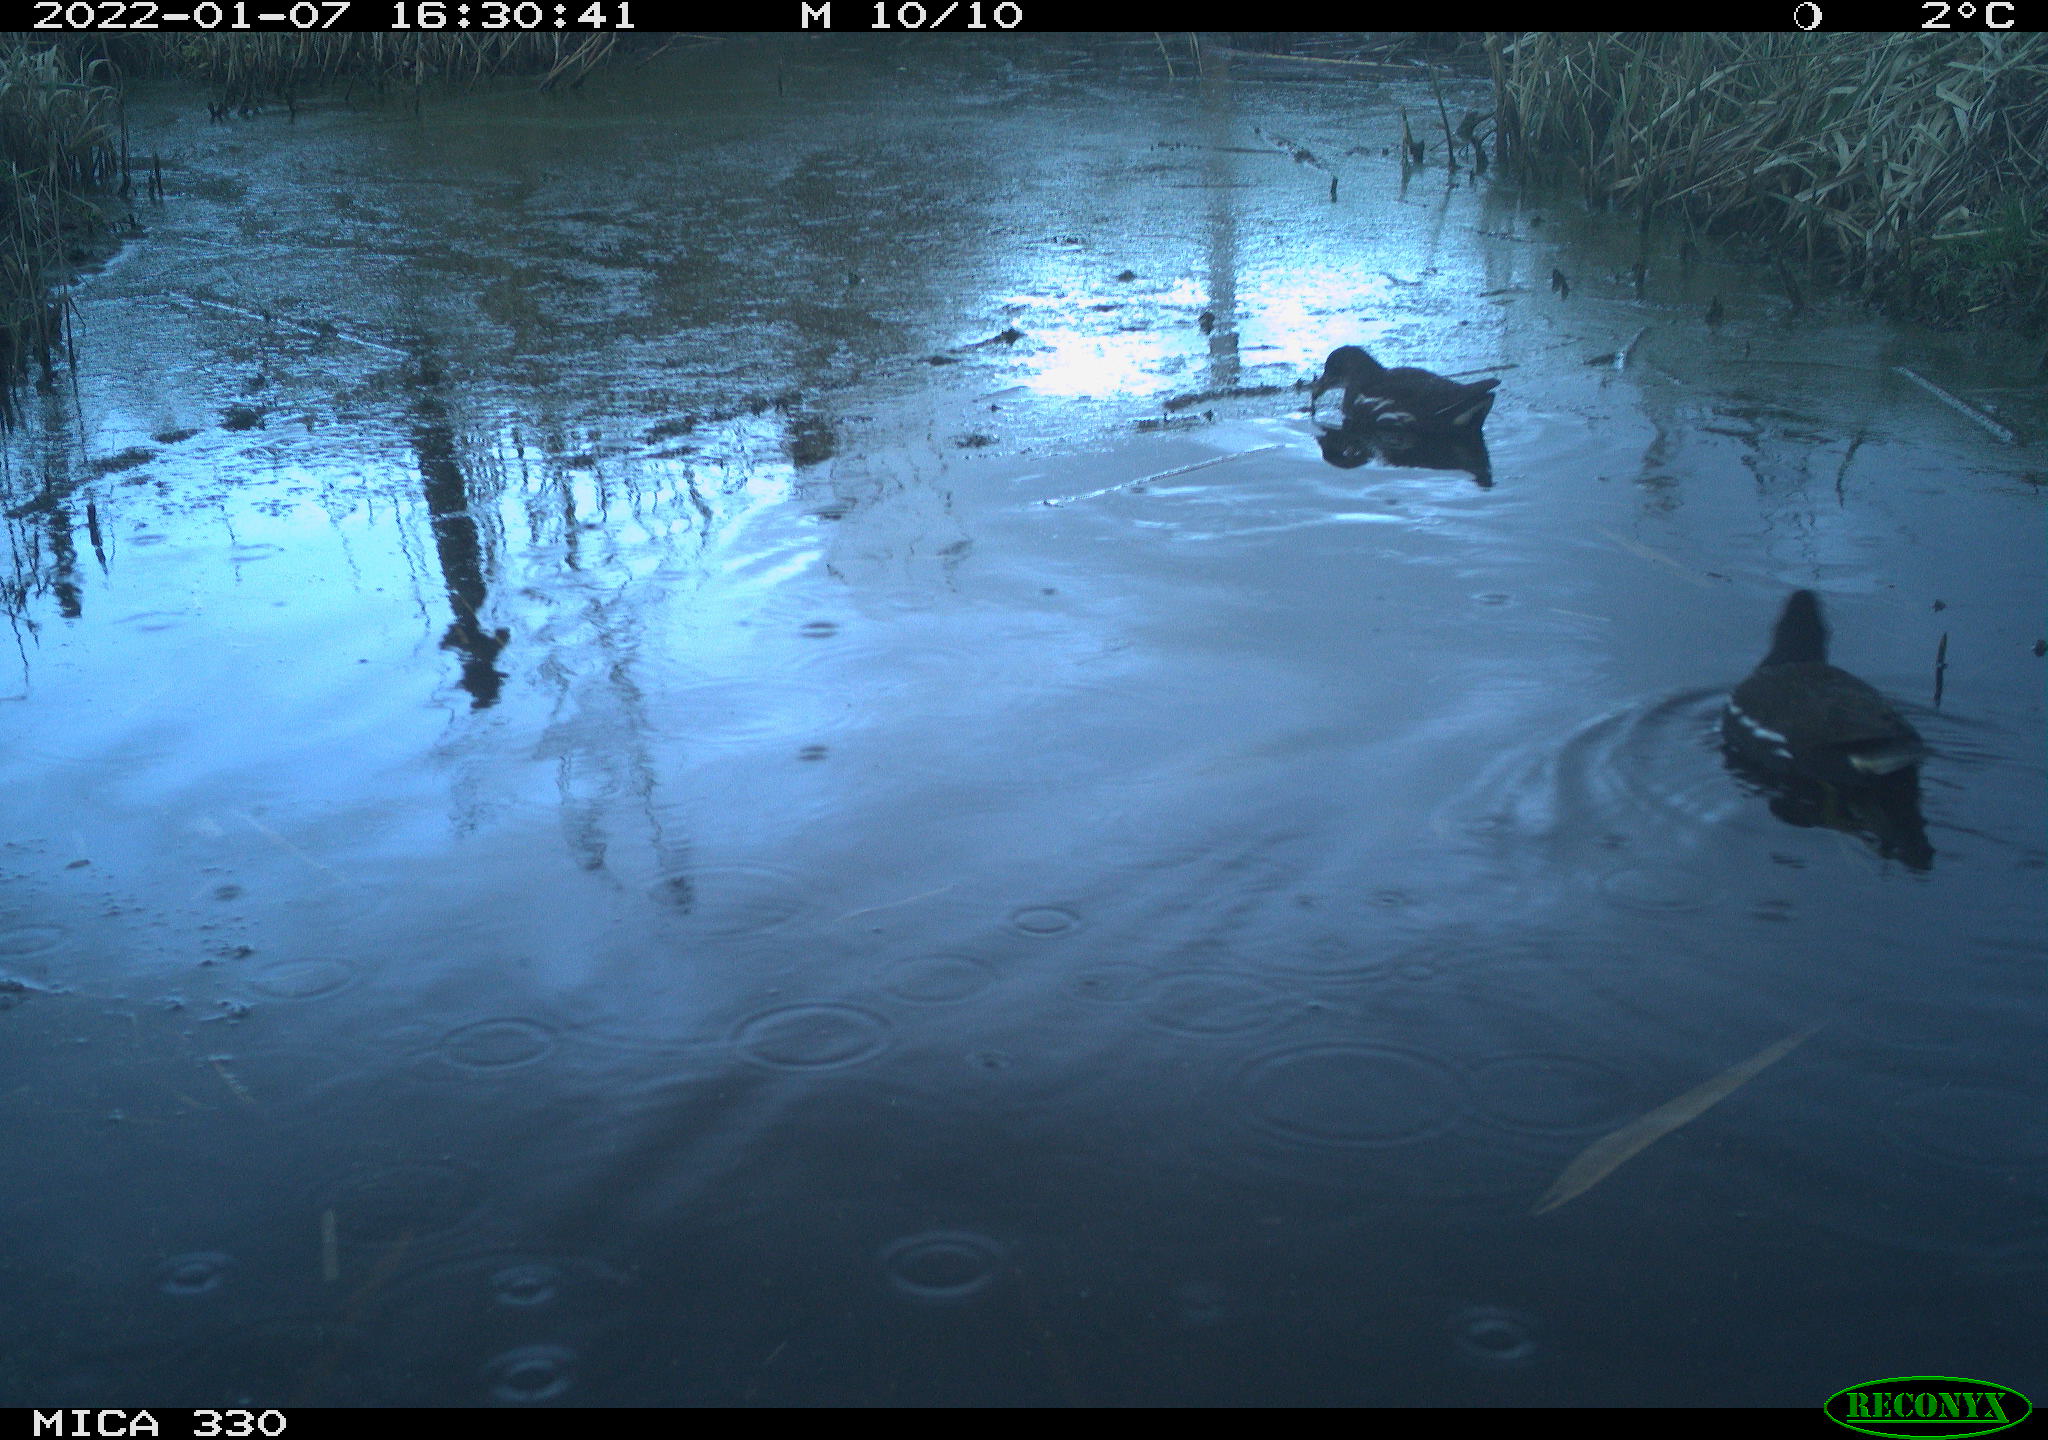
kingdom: Animalia
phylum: Chordata
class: Aves
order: Gruiformes
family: Rallidae
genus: Gallinula
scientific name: Gallinula chloropus
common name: Common moorhen
